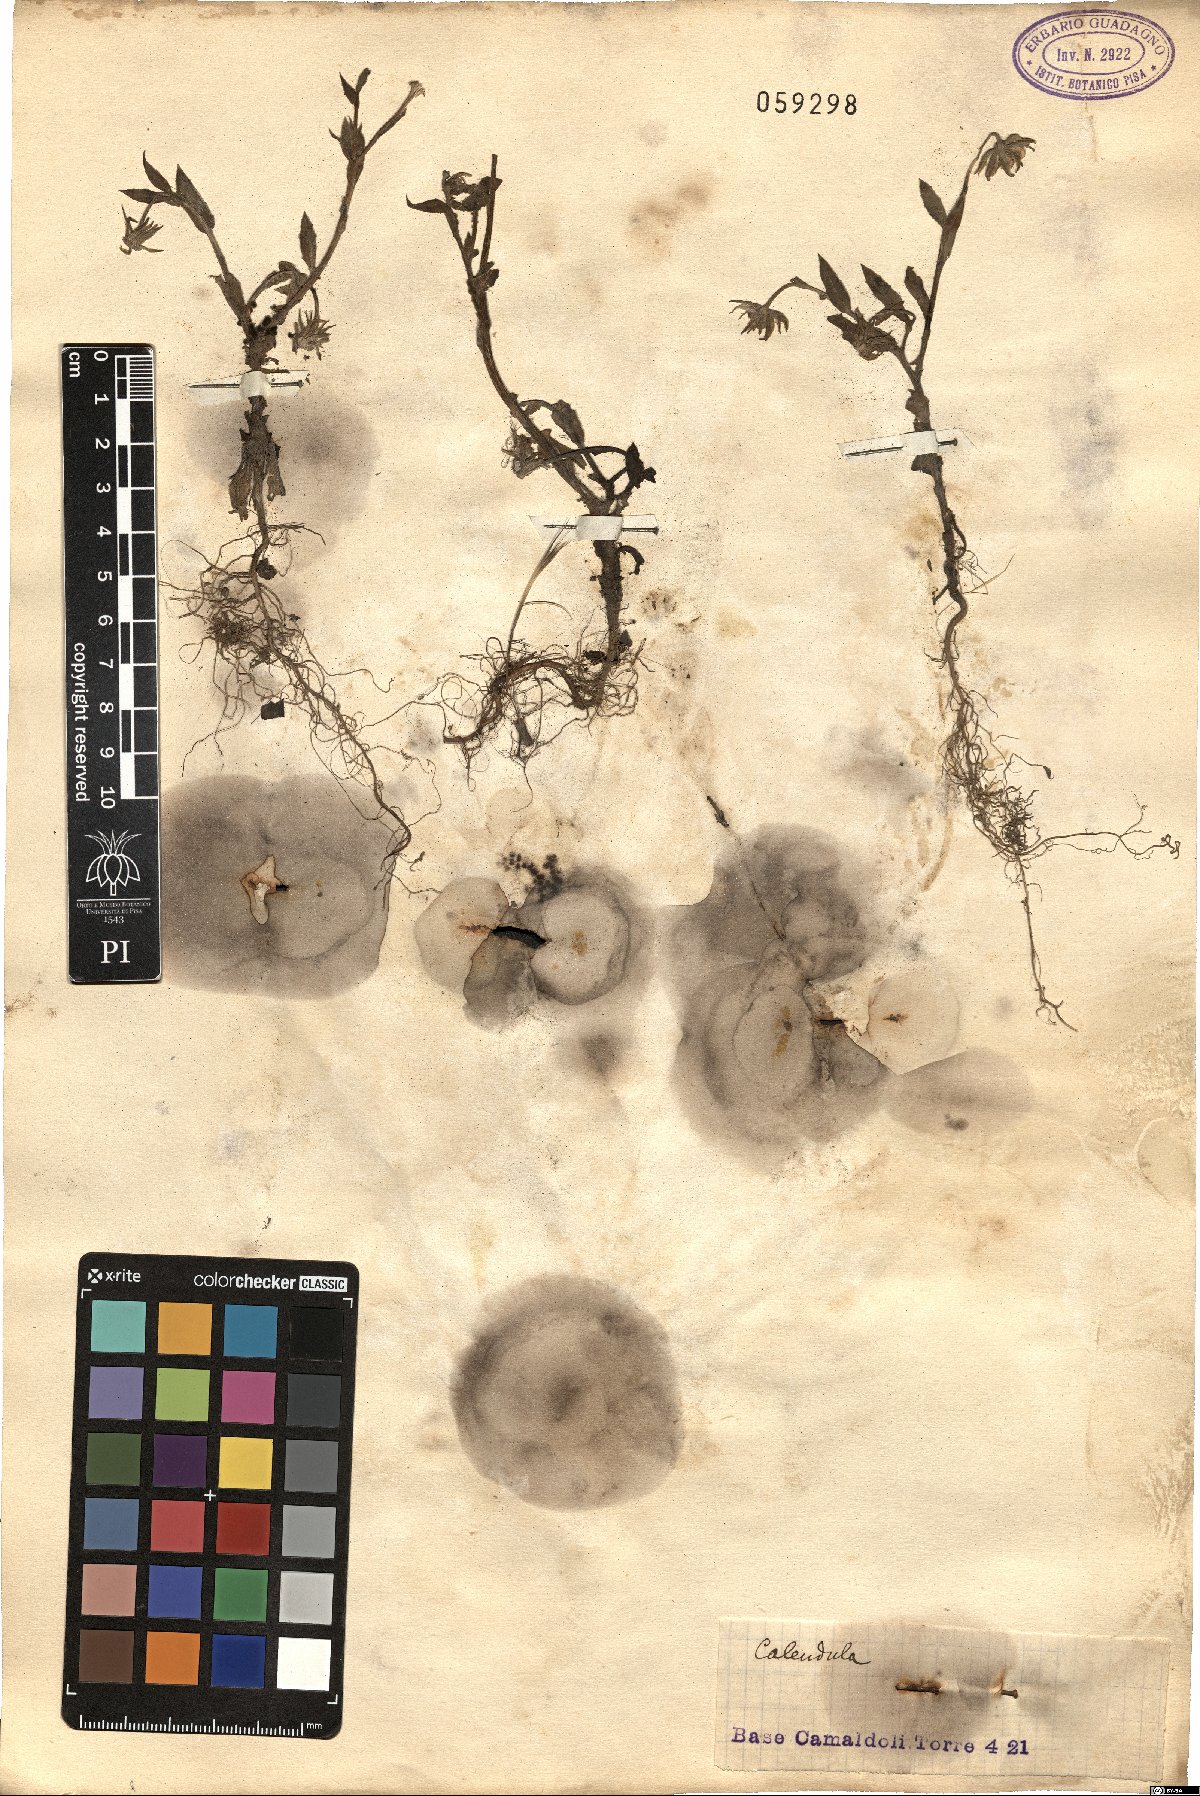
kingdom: Plantae
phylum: Tracheophyta
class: Magnoliopsida
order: Asterales
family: Asteraceae
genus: Calendula
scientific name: Calendula
